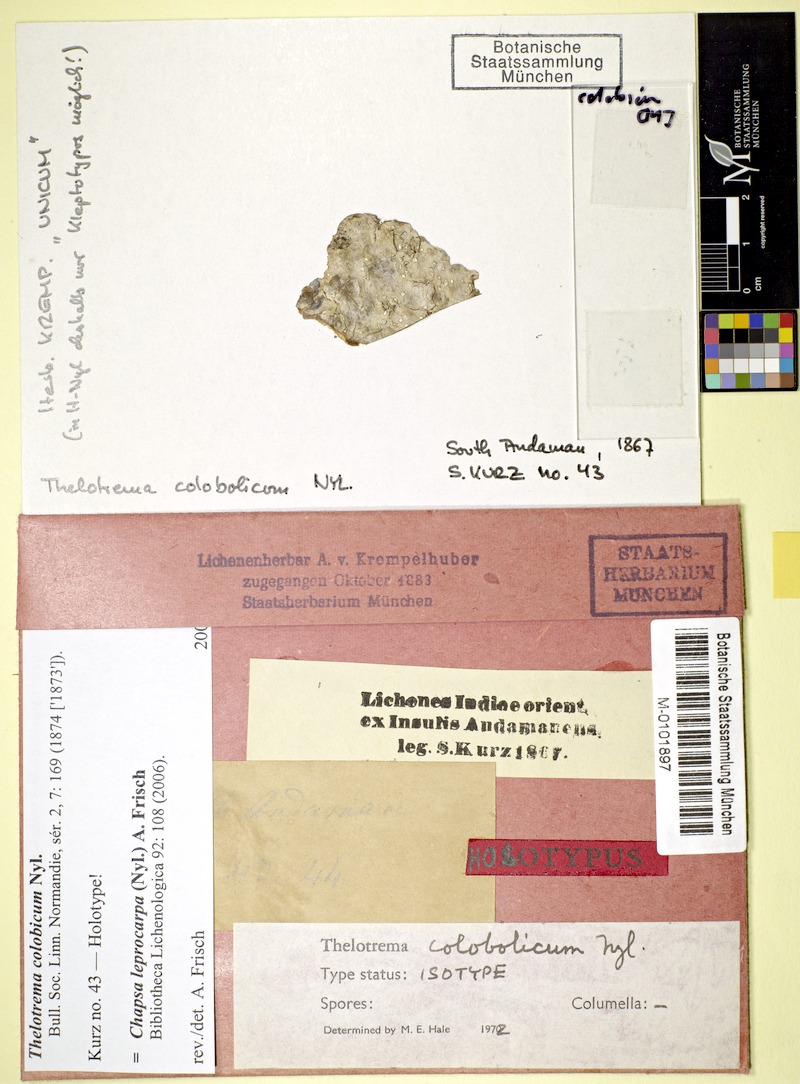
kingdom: Fungi
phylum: Ascomycota
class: Lecanoromycetes
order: Ostropales
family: Graphidaceae
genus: Chapsa
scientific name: Chapsa leprocarpa
